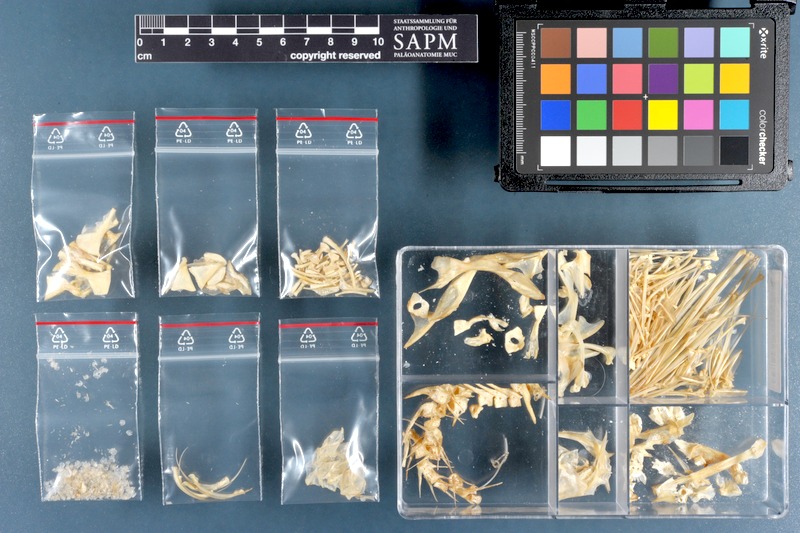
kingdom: Animalia
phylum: Chordata
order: Scorpaeniformes
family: Scorpaenidae
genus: Pterois
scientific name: Pterois russelii
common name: Plaintail firefish
